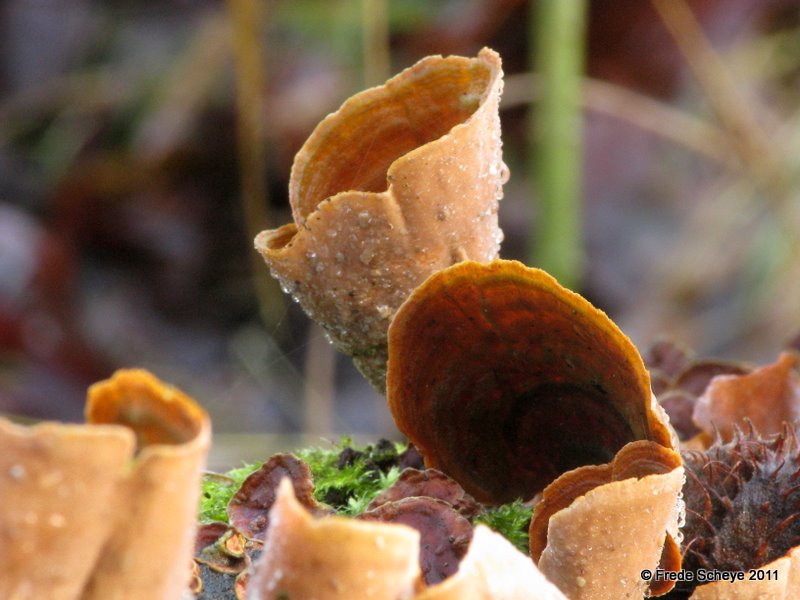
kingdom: Fungi
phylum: Basidiomycota
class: Agaricomycetes
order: Russulales
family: Stereaceae
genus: Stereum
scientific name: Stereum subtomentosum
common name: smuk lædersvamp
